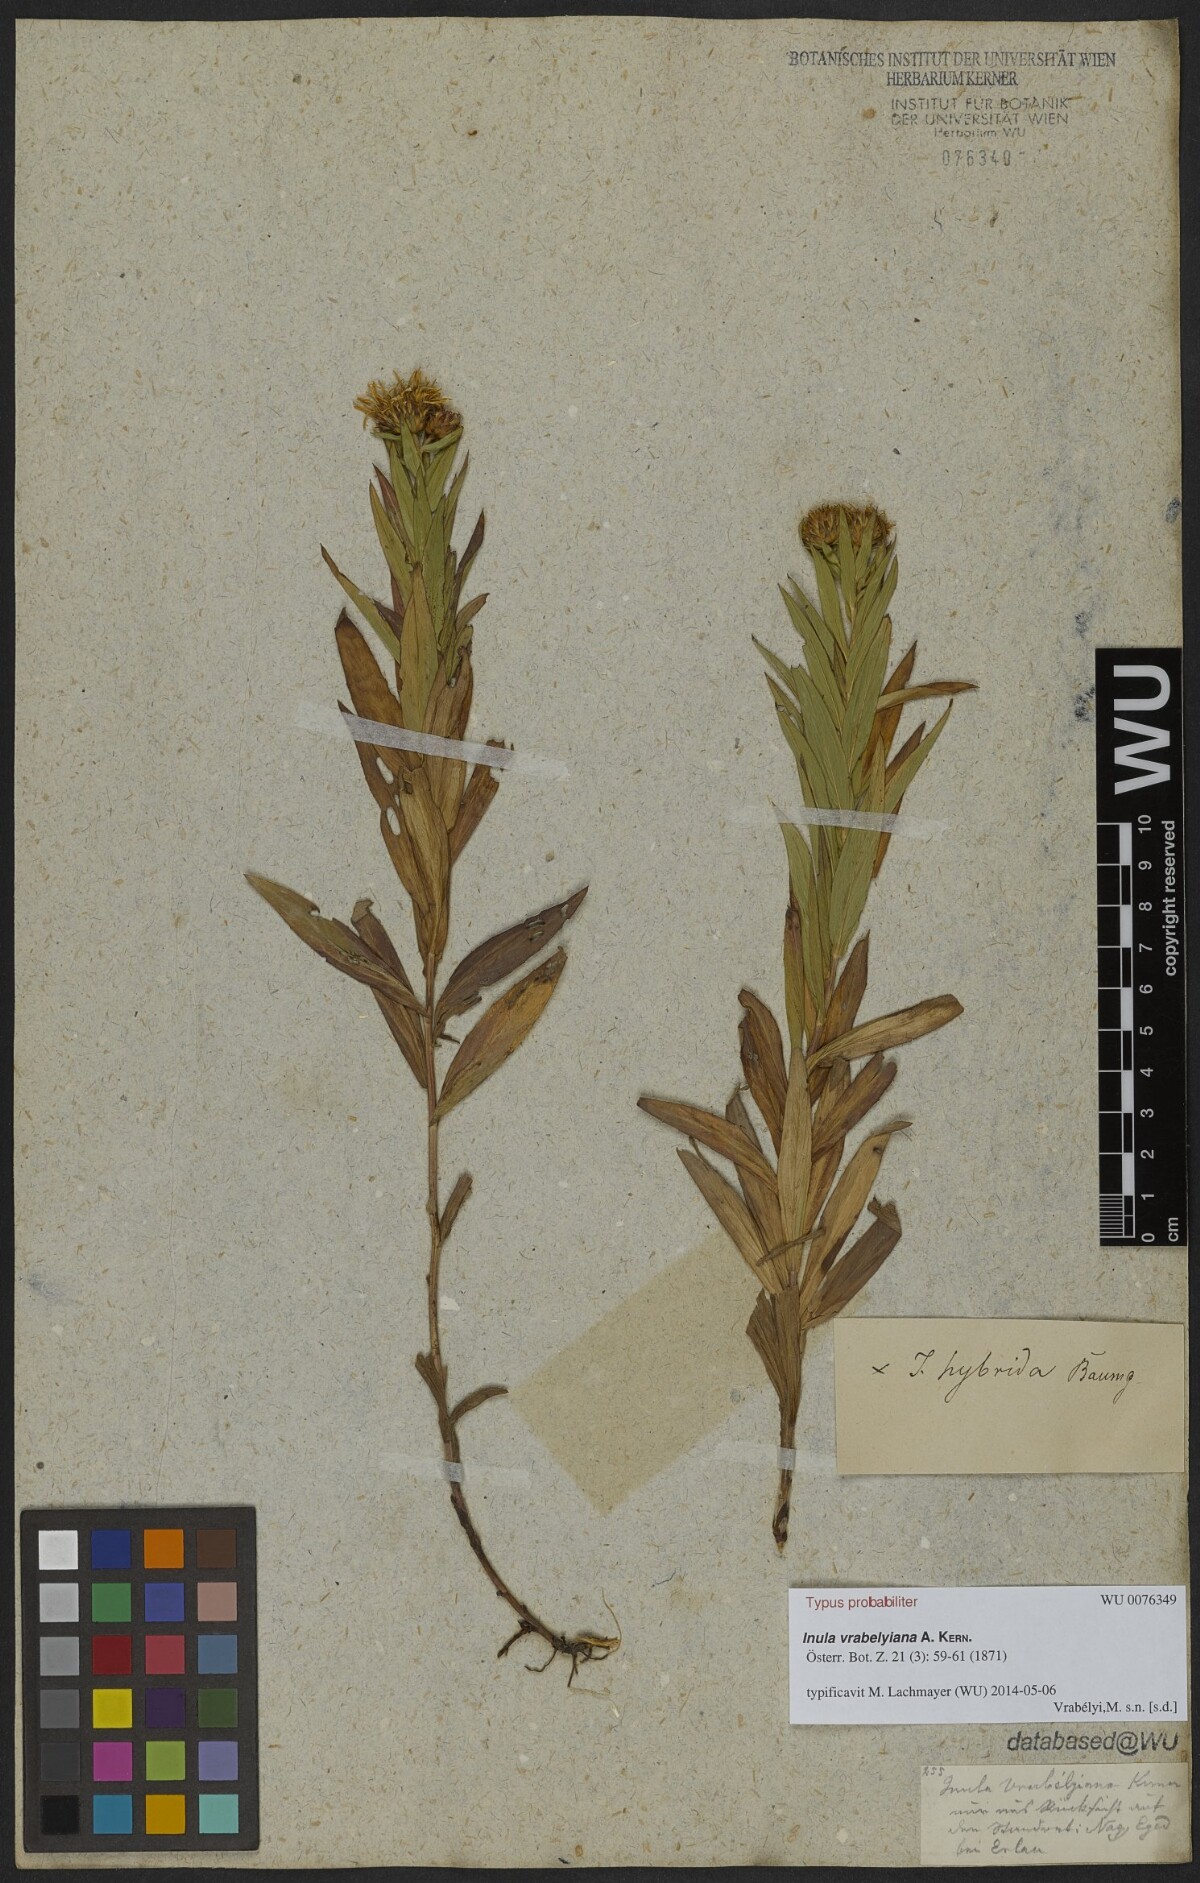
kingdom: Plantae
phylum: Tracheophyta
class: Magnoliopsida
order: Asterales
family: Asteraceae
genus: Pentanema
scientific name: Pentanema strictum
